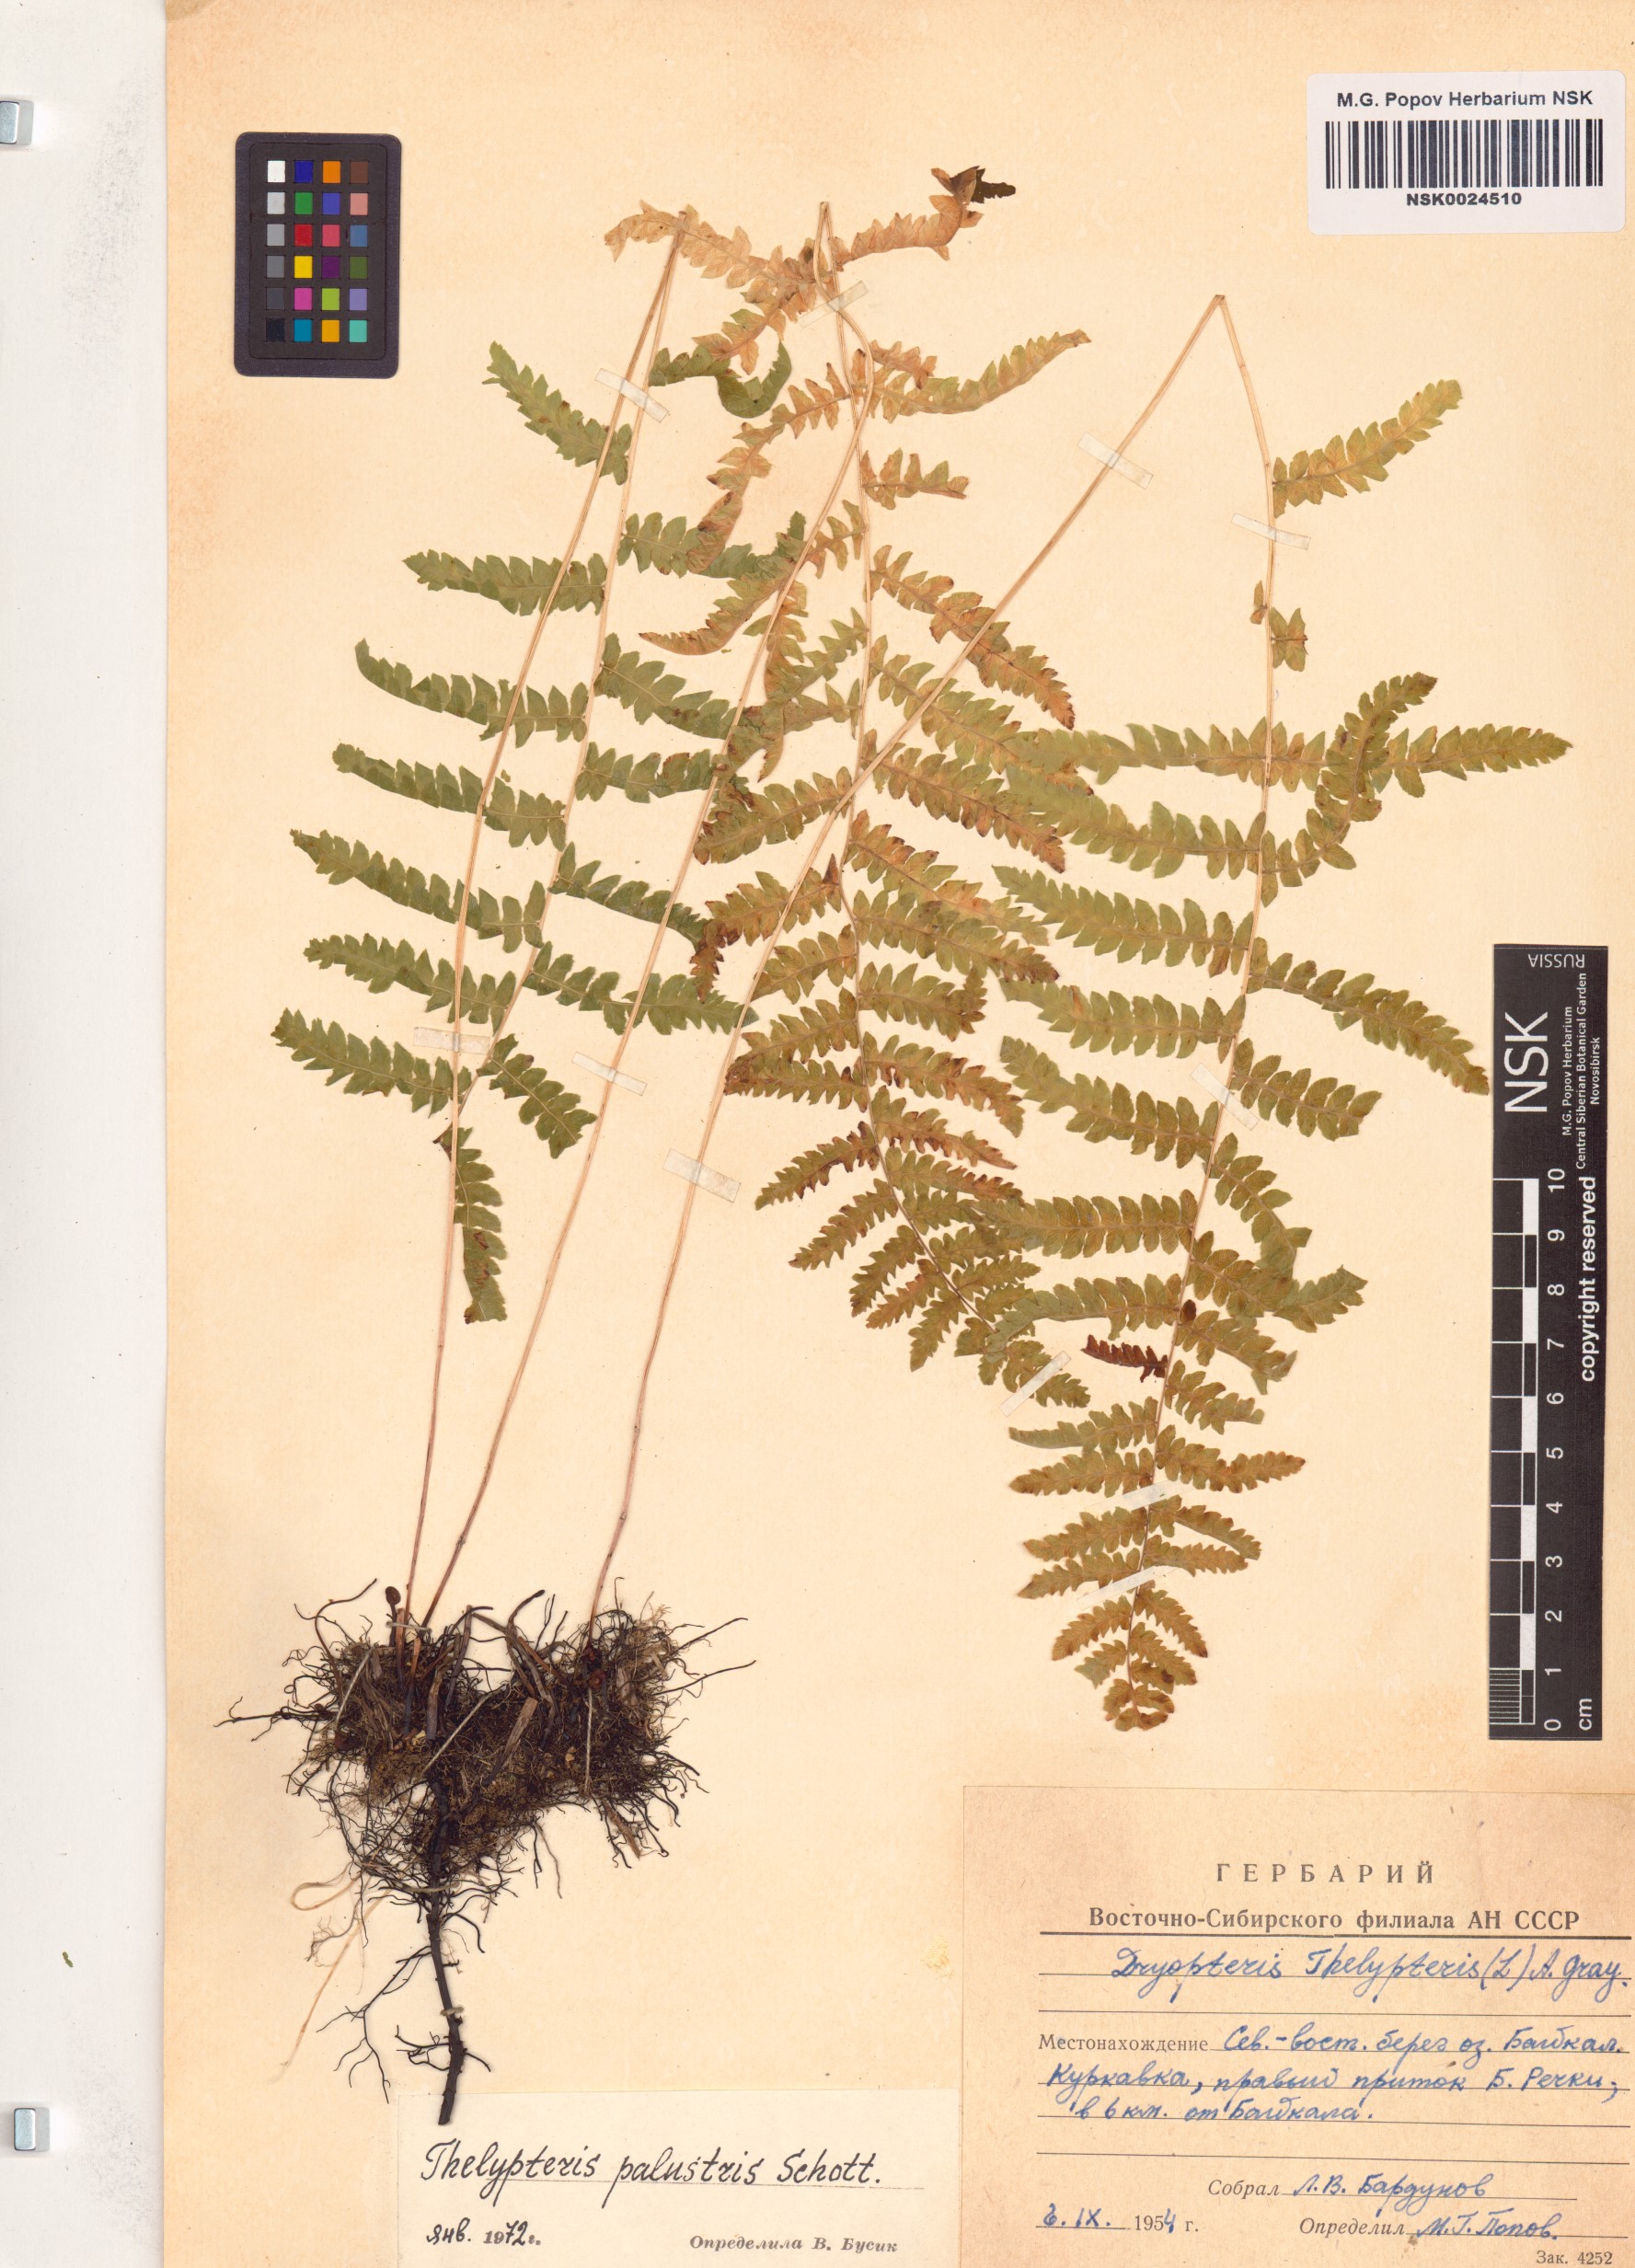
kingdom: Plantae
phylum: Tracheophyta
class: Polypodiopsida
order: Polypodiales
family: Thelypteridaceae
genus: Thelypteris
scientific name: Thelypteris palustris
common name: Marsh fern
